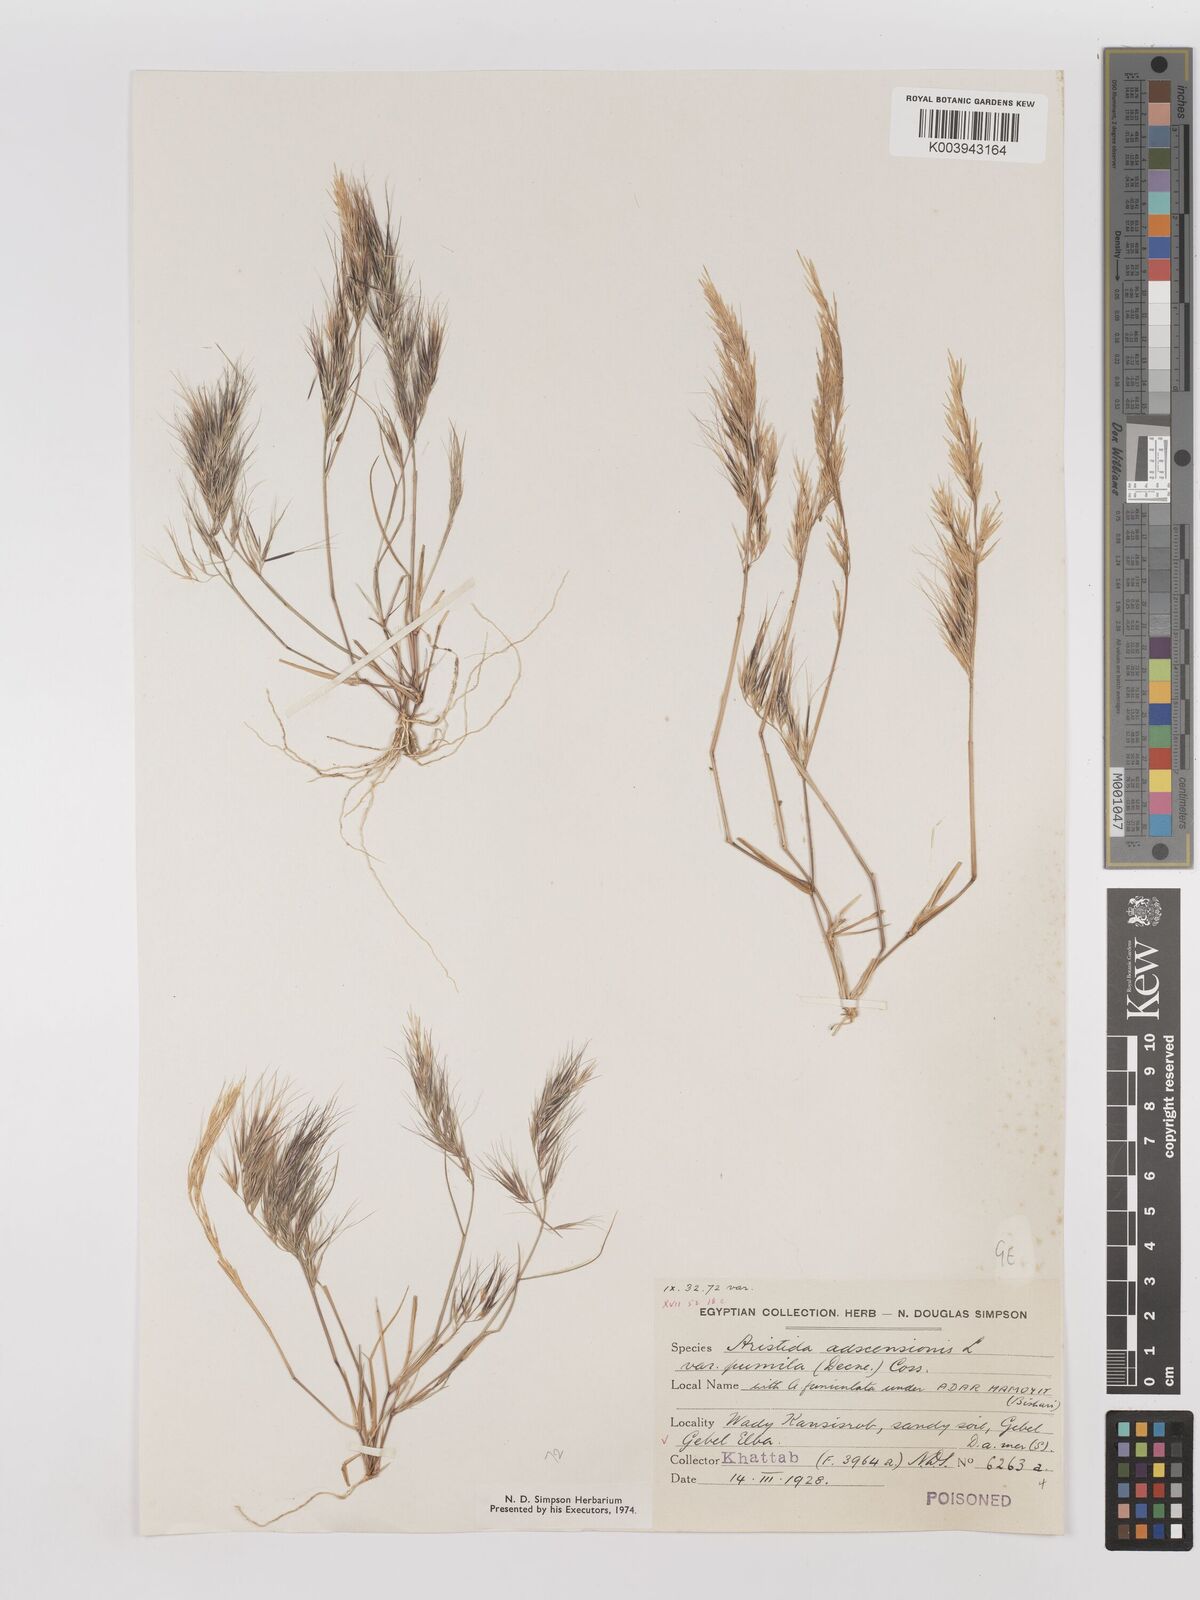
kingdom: Plantae
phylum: Tracheophyta
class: Liliopsida
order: Poales
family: Poaceae
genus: Aristida
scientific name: Aristida adscensionis
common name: Sixweeks threeawn
